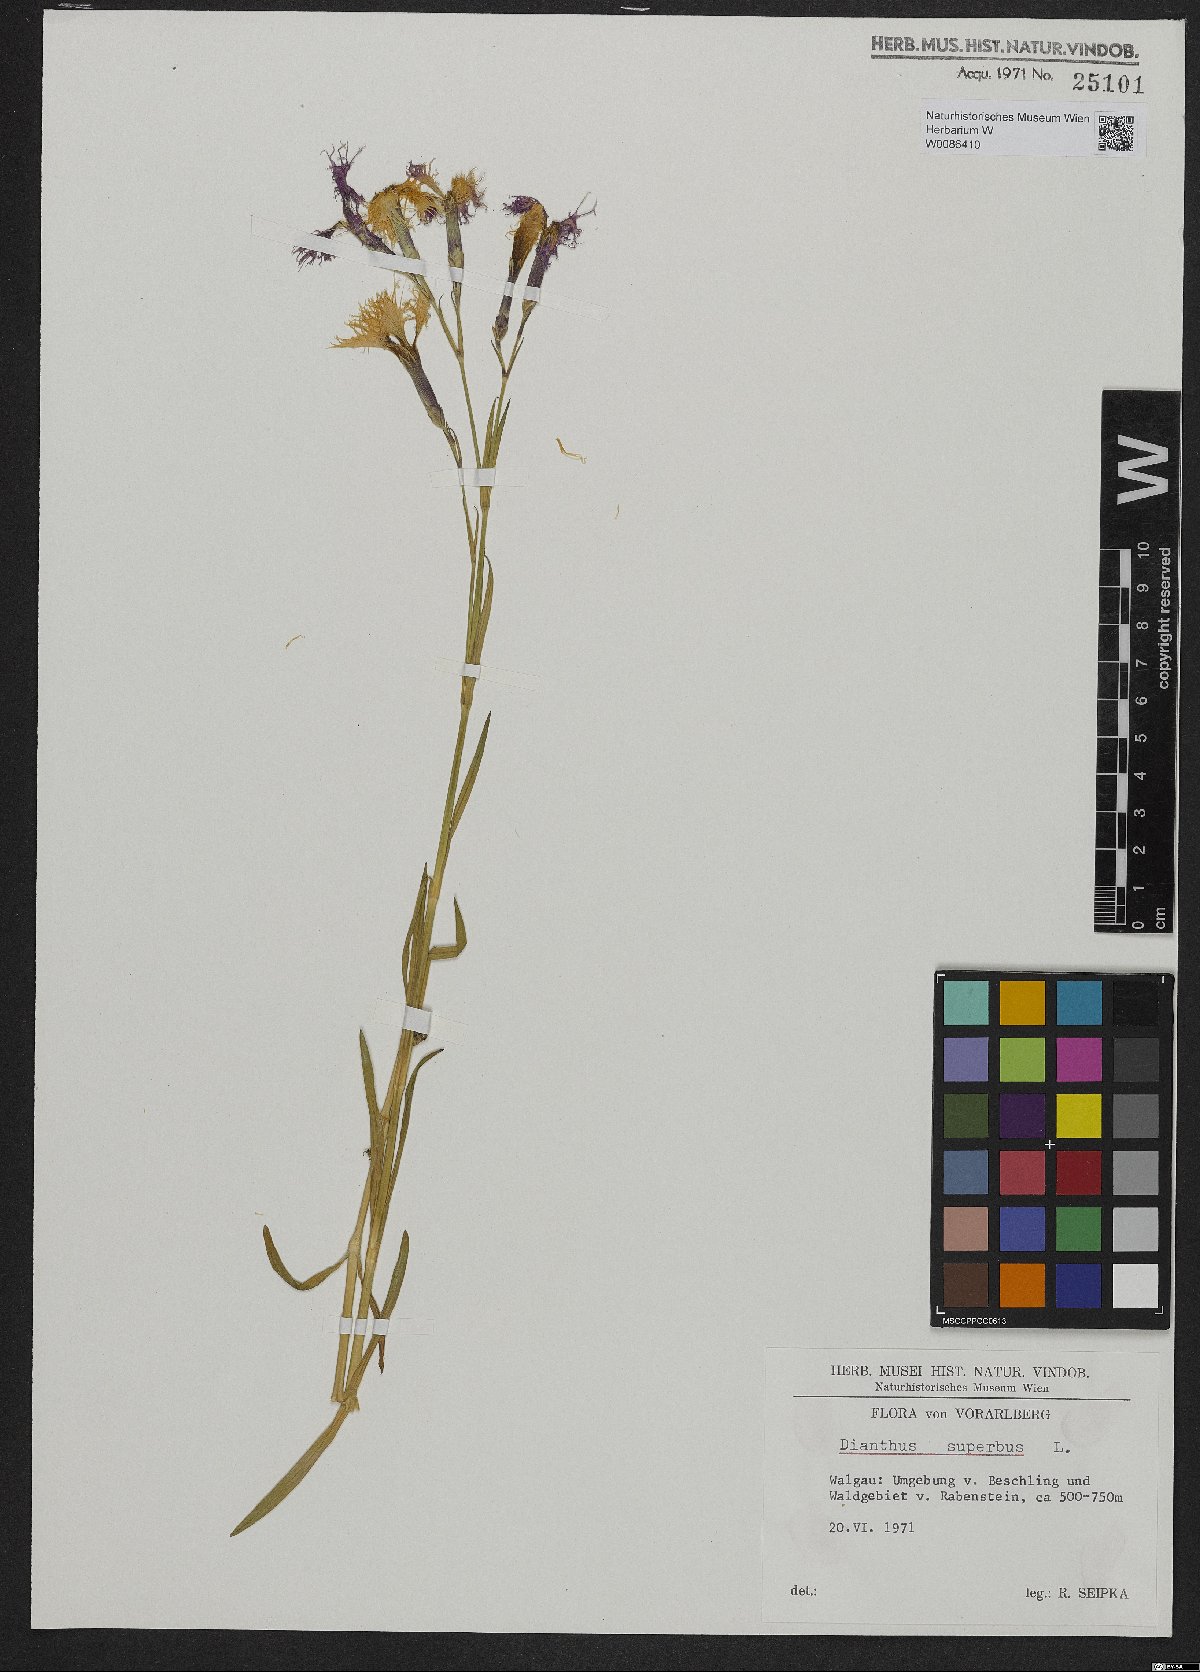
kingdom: Plantae
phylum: Tracheophyta
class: Magnoliopsida
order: Caryophyllales
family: Caryophyllaceae
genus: Dianthus
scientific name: Dianthus superbus
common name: Fringed pink
